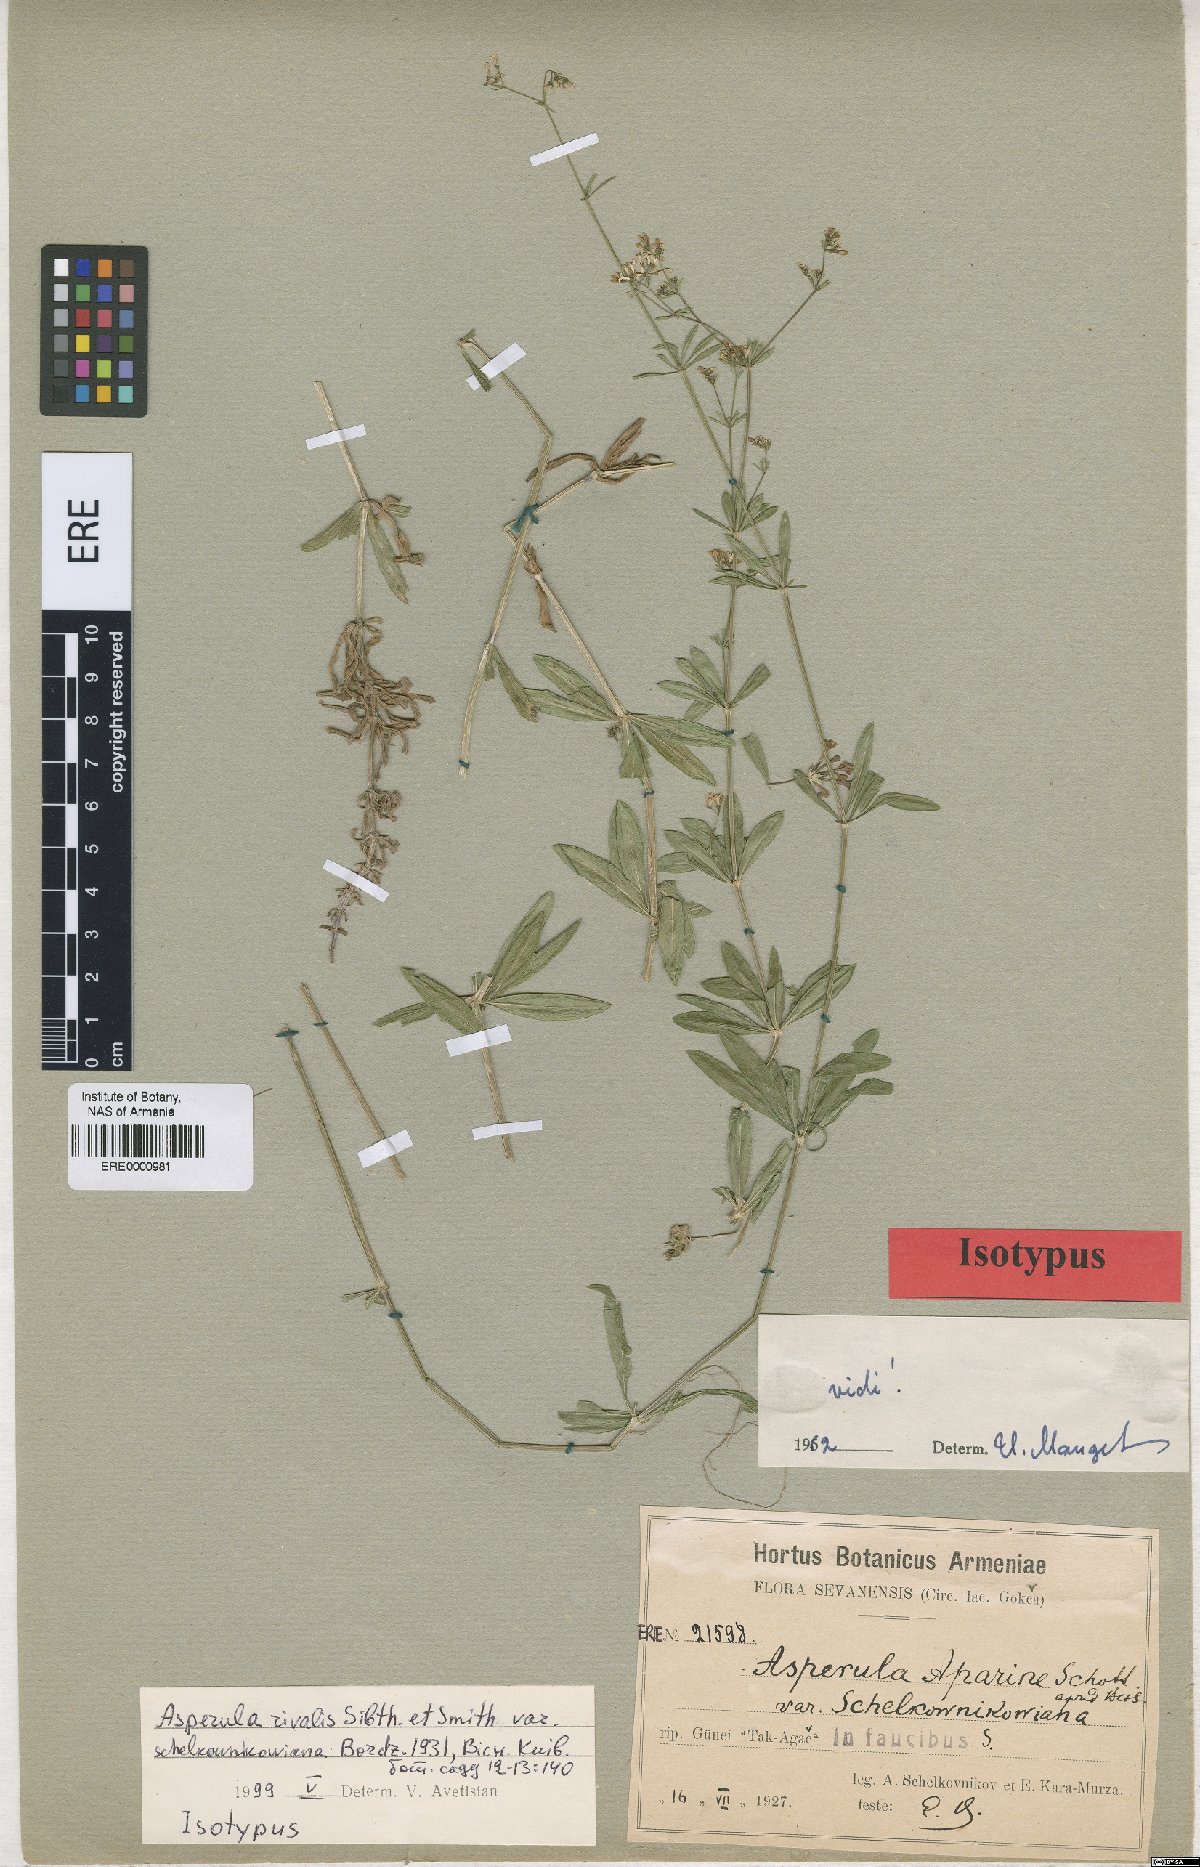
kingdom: Plantae
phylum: Tracheophyta
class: Magnoliopsida
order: Gentianales
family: Rubiaceae
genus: Galium
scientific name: Galium rivale
